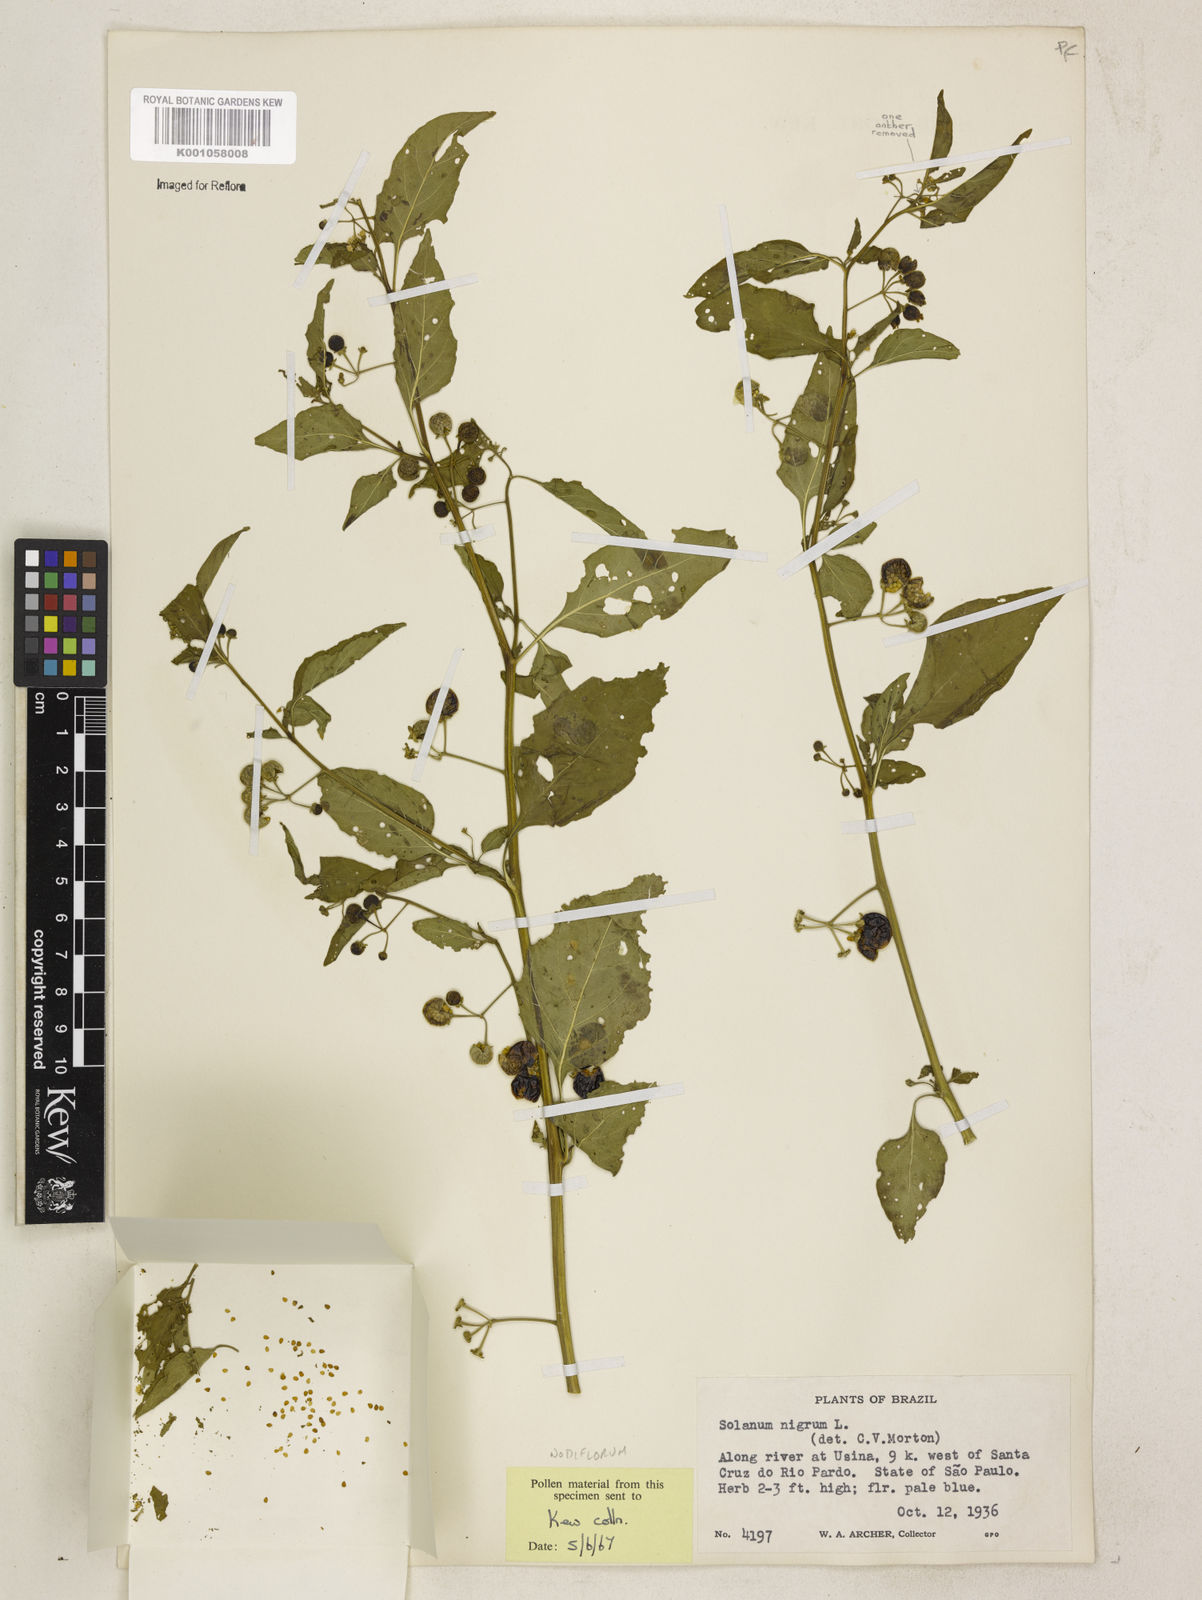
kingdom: Plantae
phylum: Tracheophyta
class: Magnoliopsida
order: Solanales
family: Solanaceae
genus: Solanum
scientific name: Solanum americanum
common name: American black nightshade
